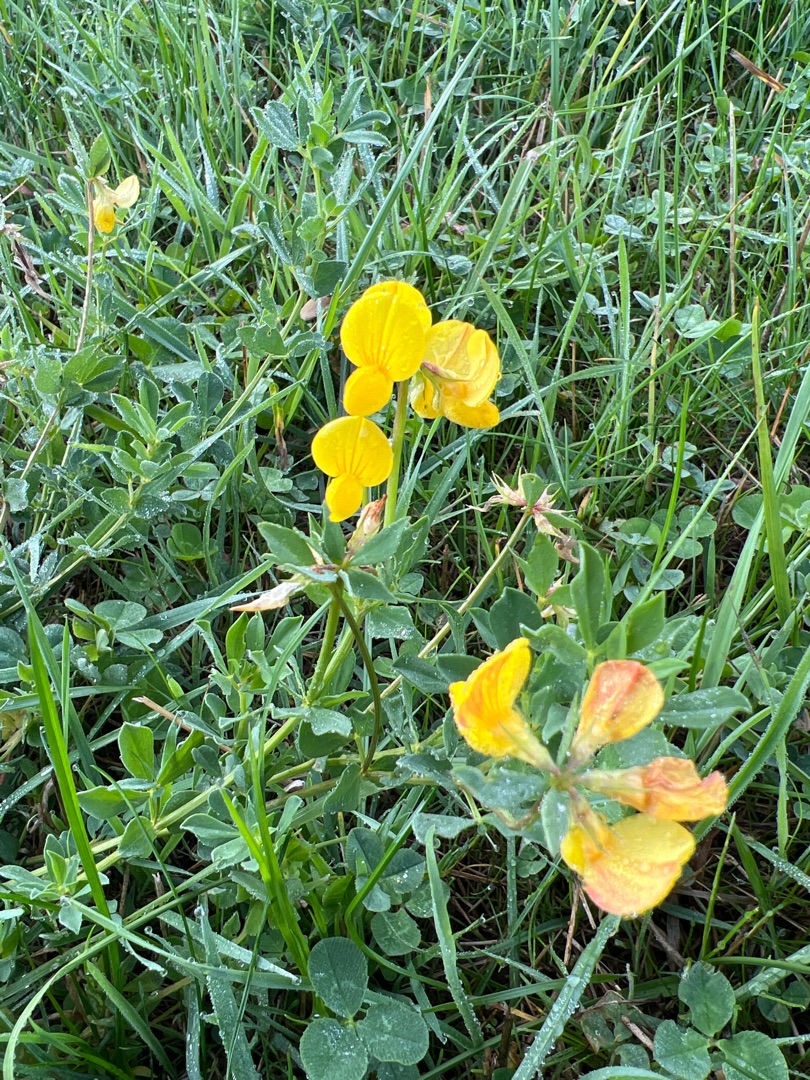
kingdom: Plantae
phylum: Tracheophyta
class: Magnoliopsida
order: Fabales
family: Fabaceae
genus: Lotus
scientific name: Lotus corniculatus
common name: Almindelig kællingetand
